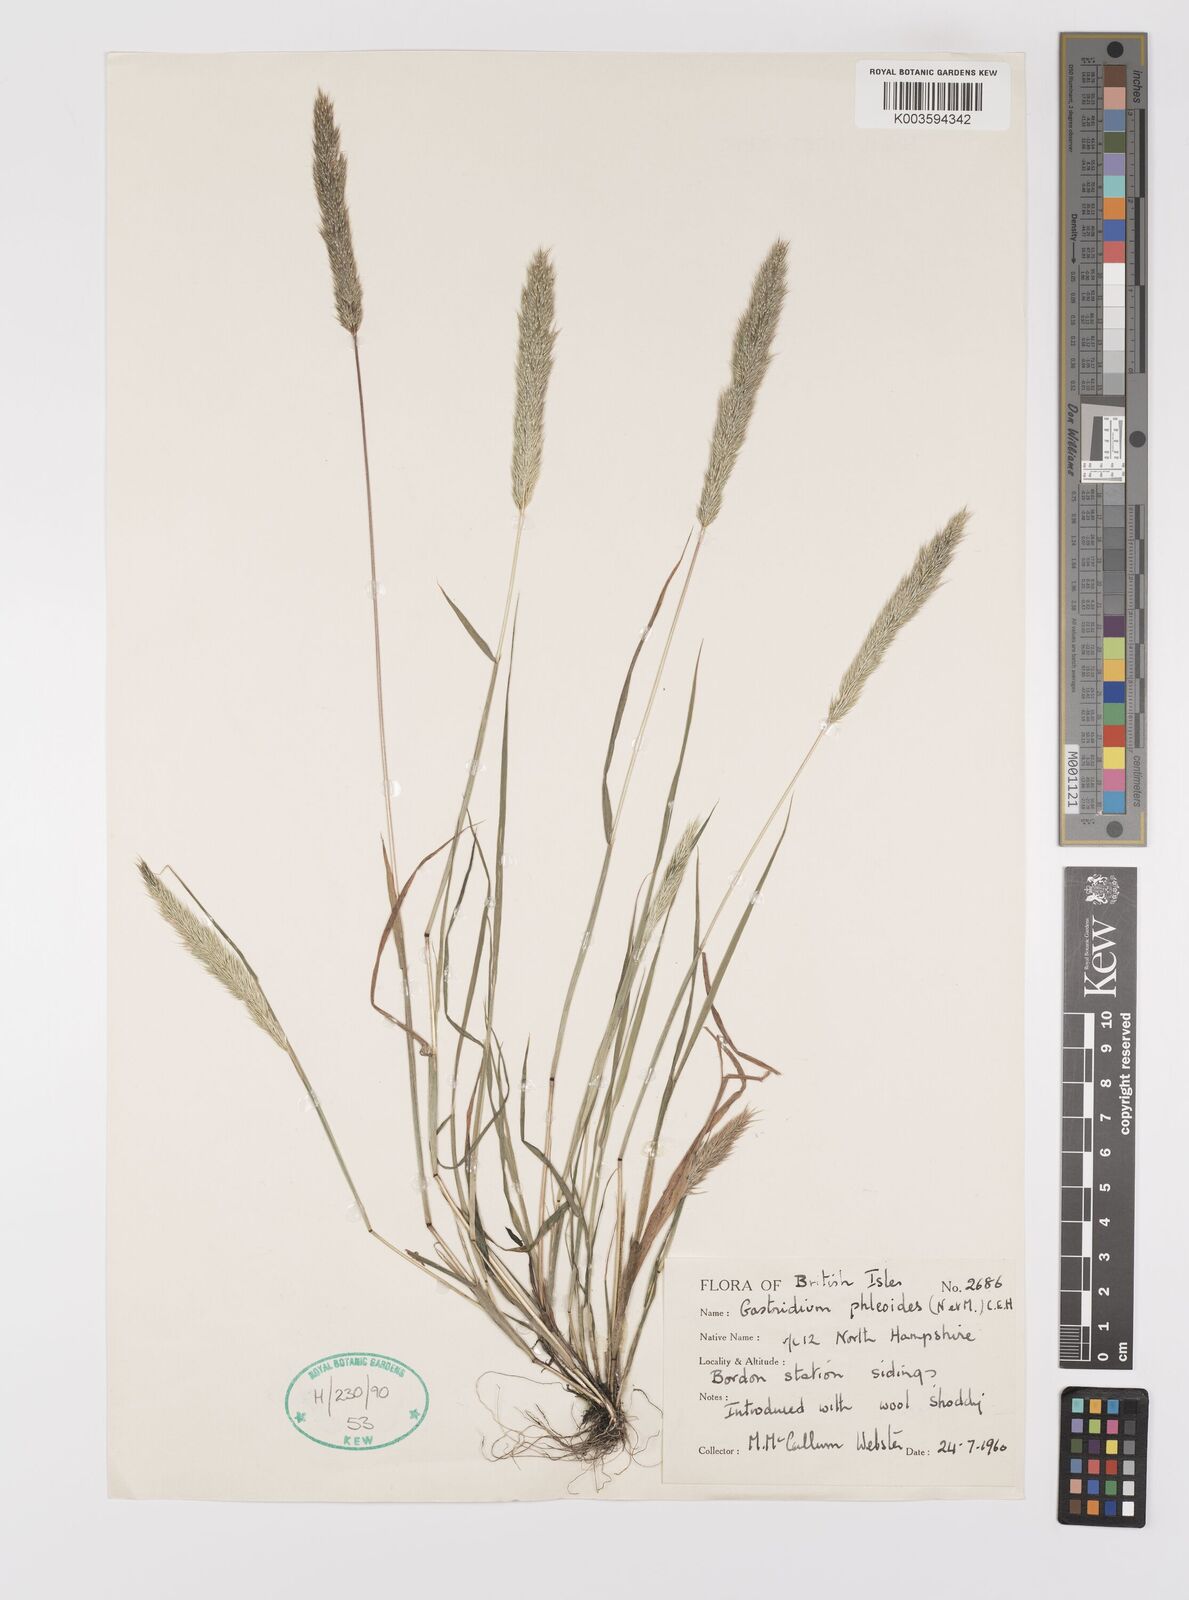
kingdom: Plantae
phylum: Tracheophyta
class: Liliopsida
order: Poales
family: Poaceae
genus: Gastridium
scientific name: Gastridium phleoides
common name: Nit grass
